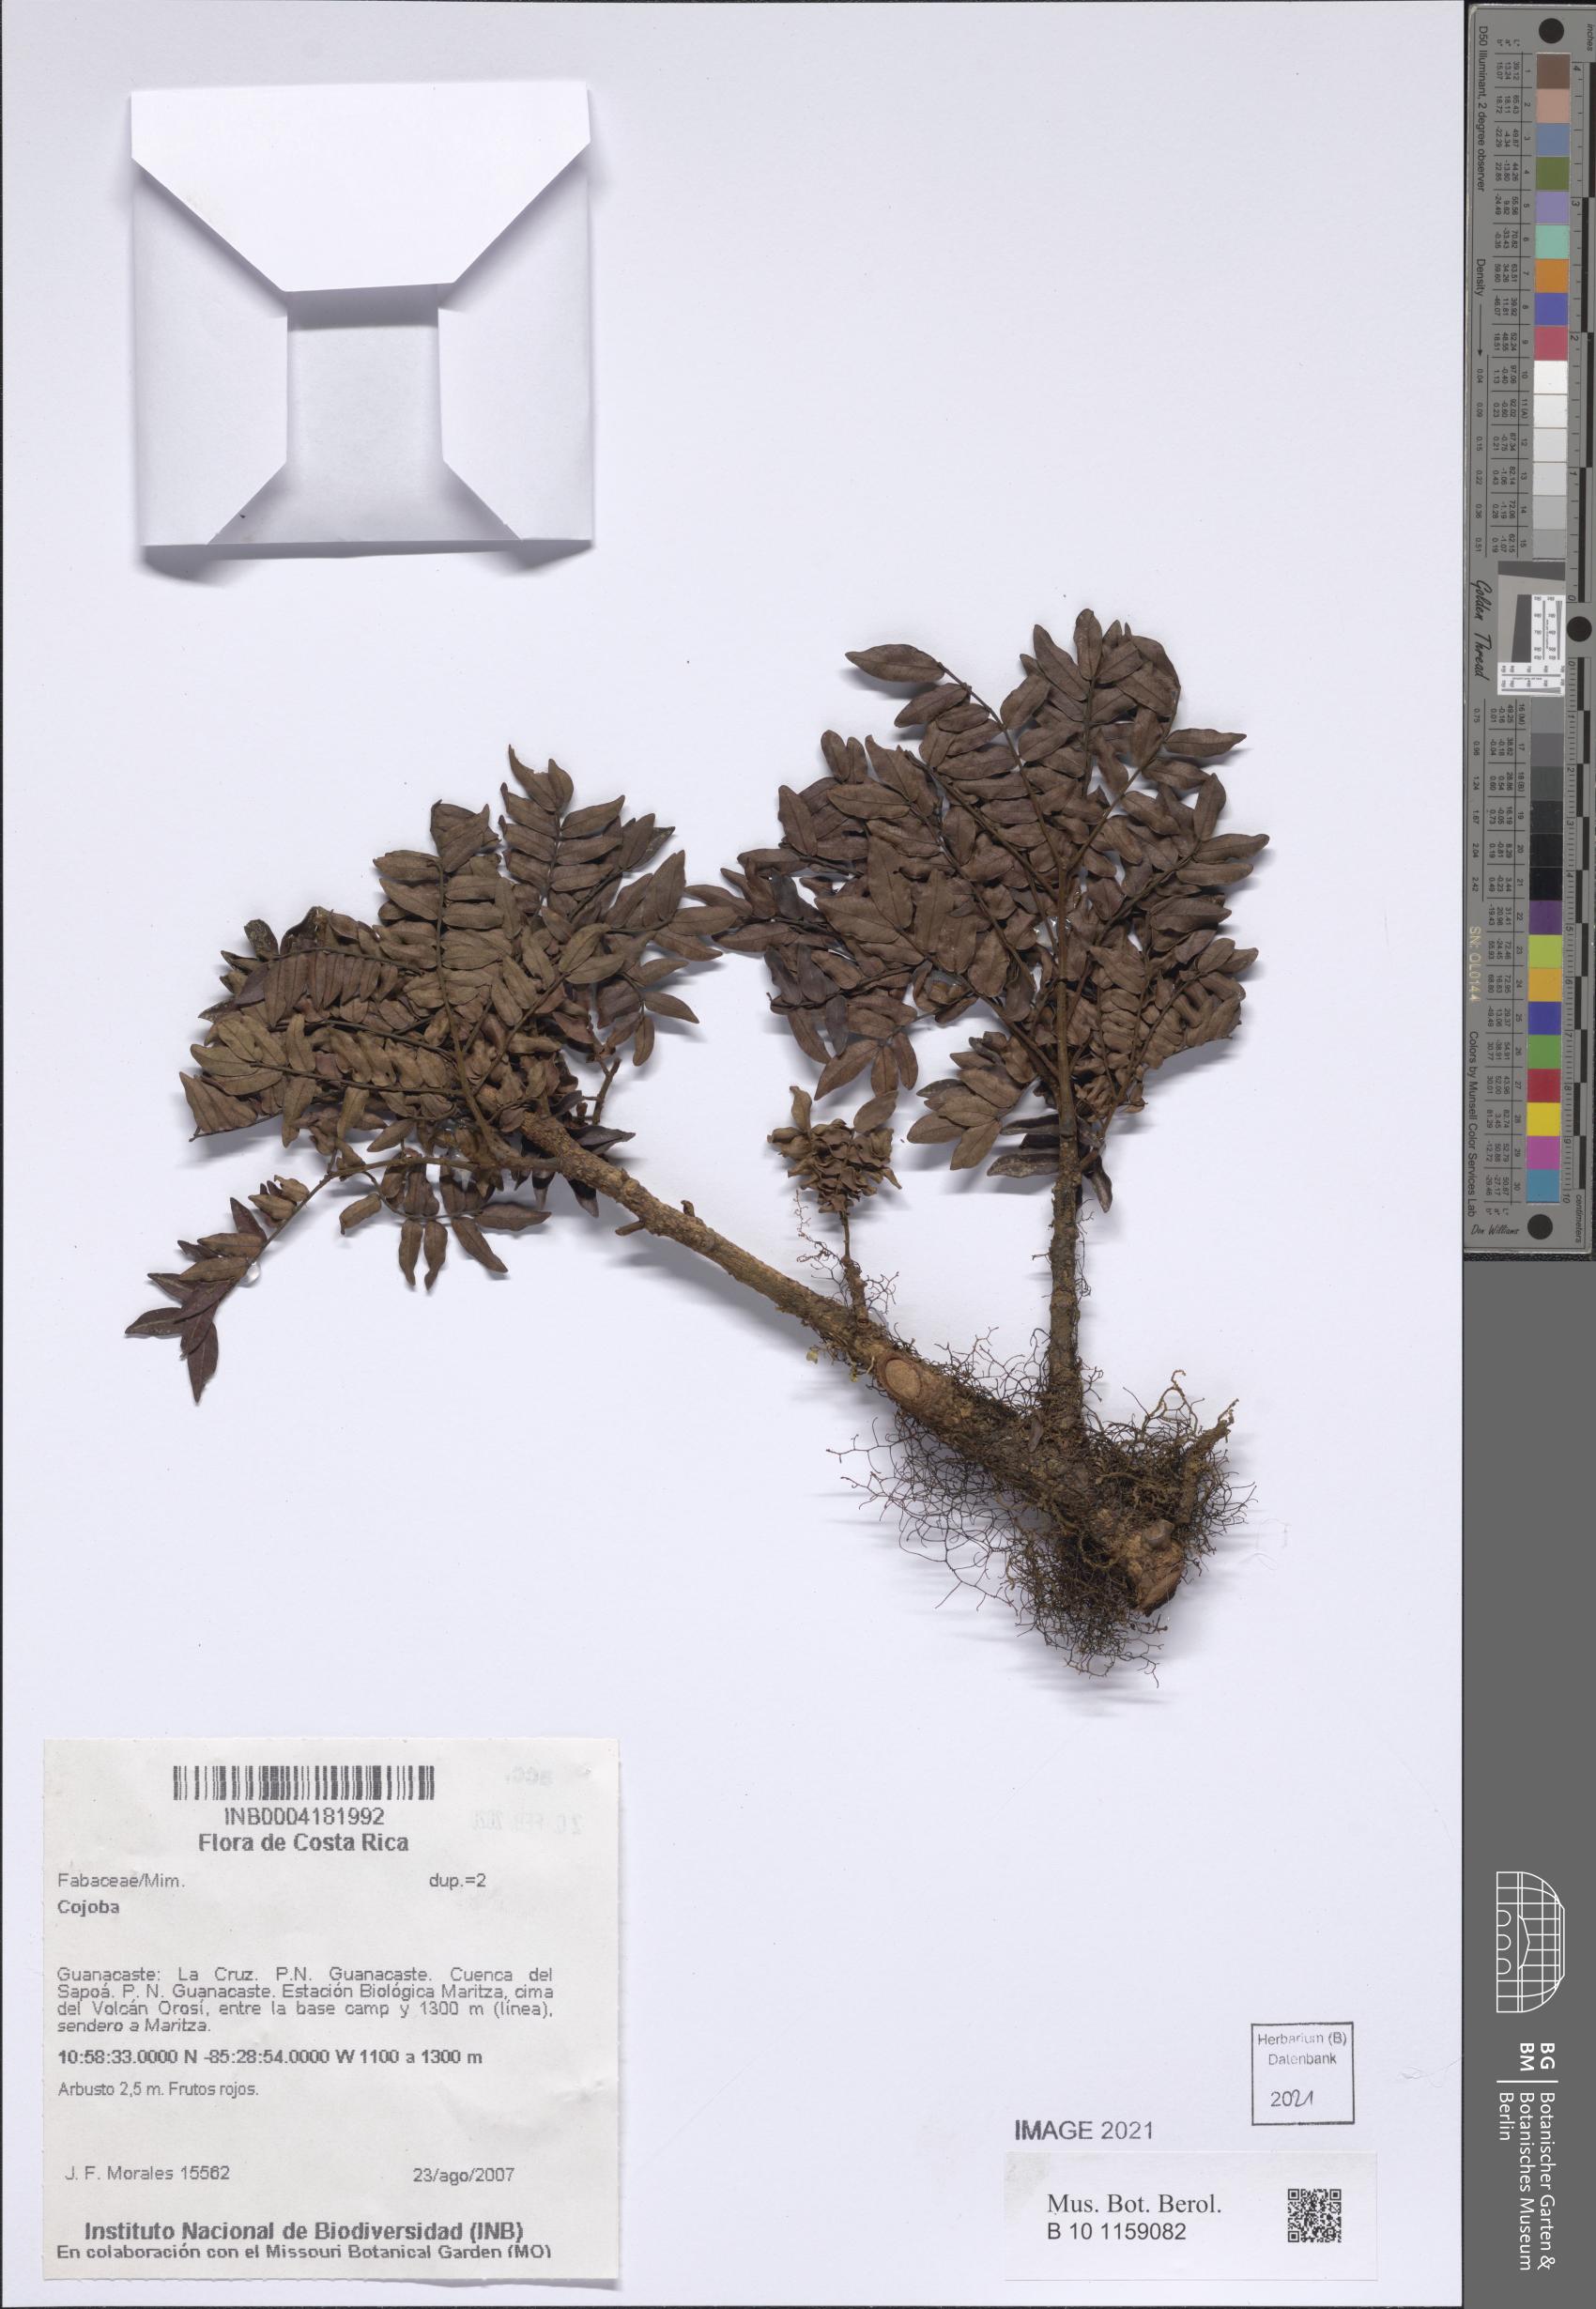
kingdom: Plantae
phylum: Tracheophyta
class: Magnoliopsida
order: Fabales
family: Fabaceae
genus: Cojoba
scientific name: Cojoba
